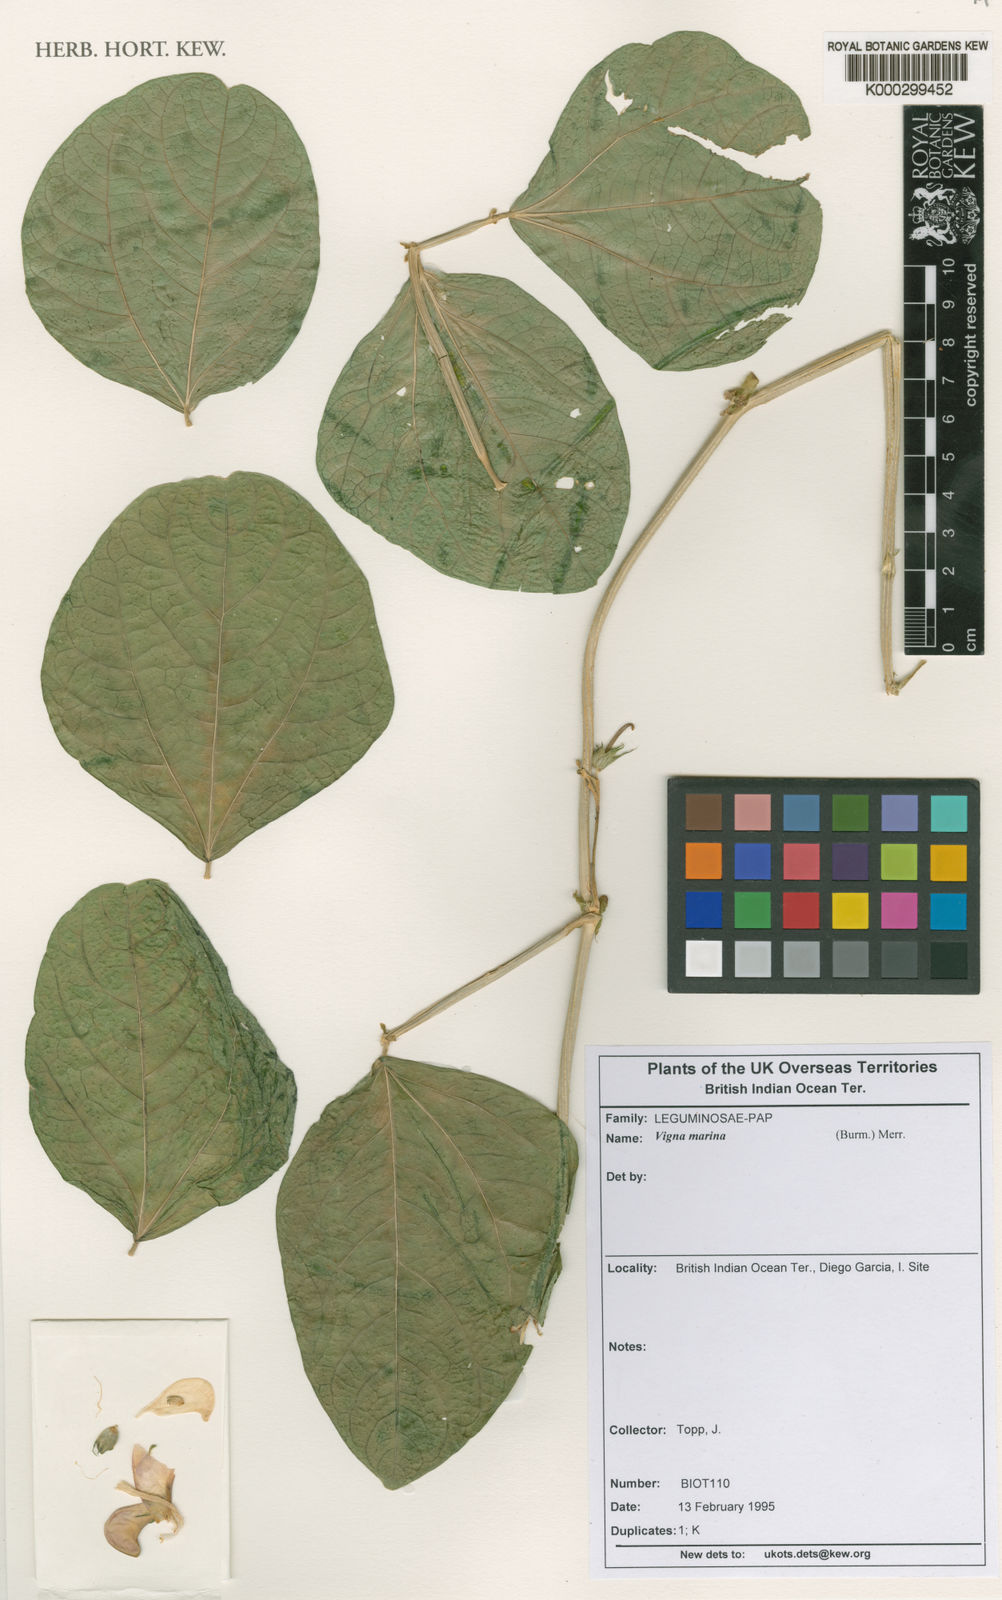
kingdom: Plantae
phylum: Tracheophyta
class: Magnoliopsida
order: Fabales
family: Fabaceae
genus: Vigna
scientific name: Vigna unguiculata
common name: Cowpea
